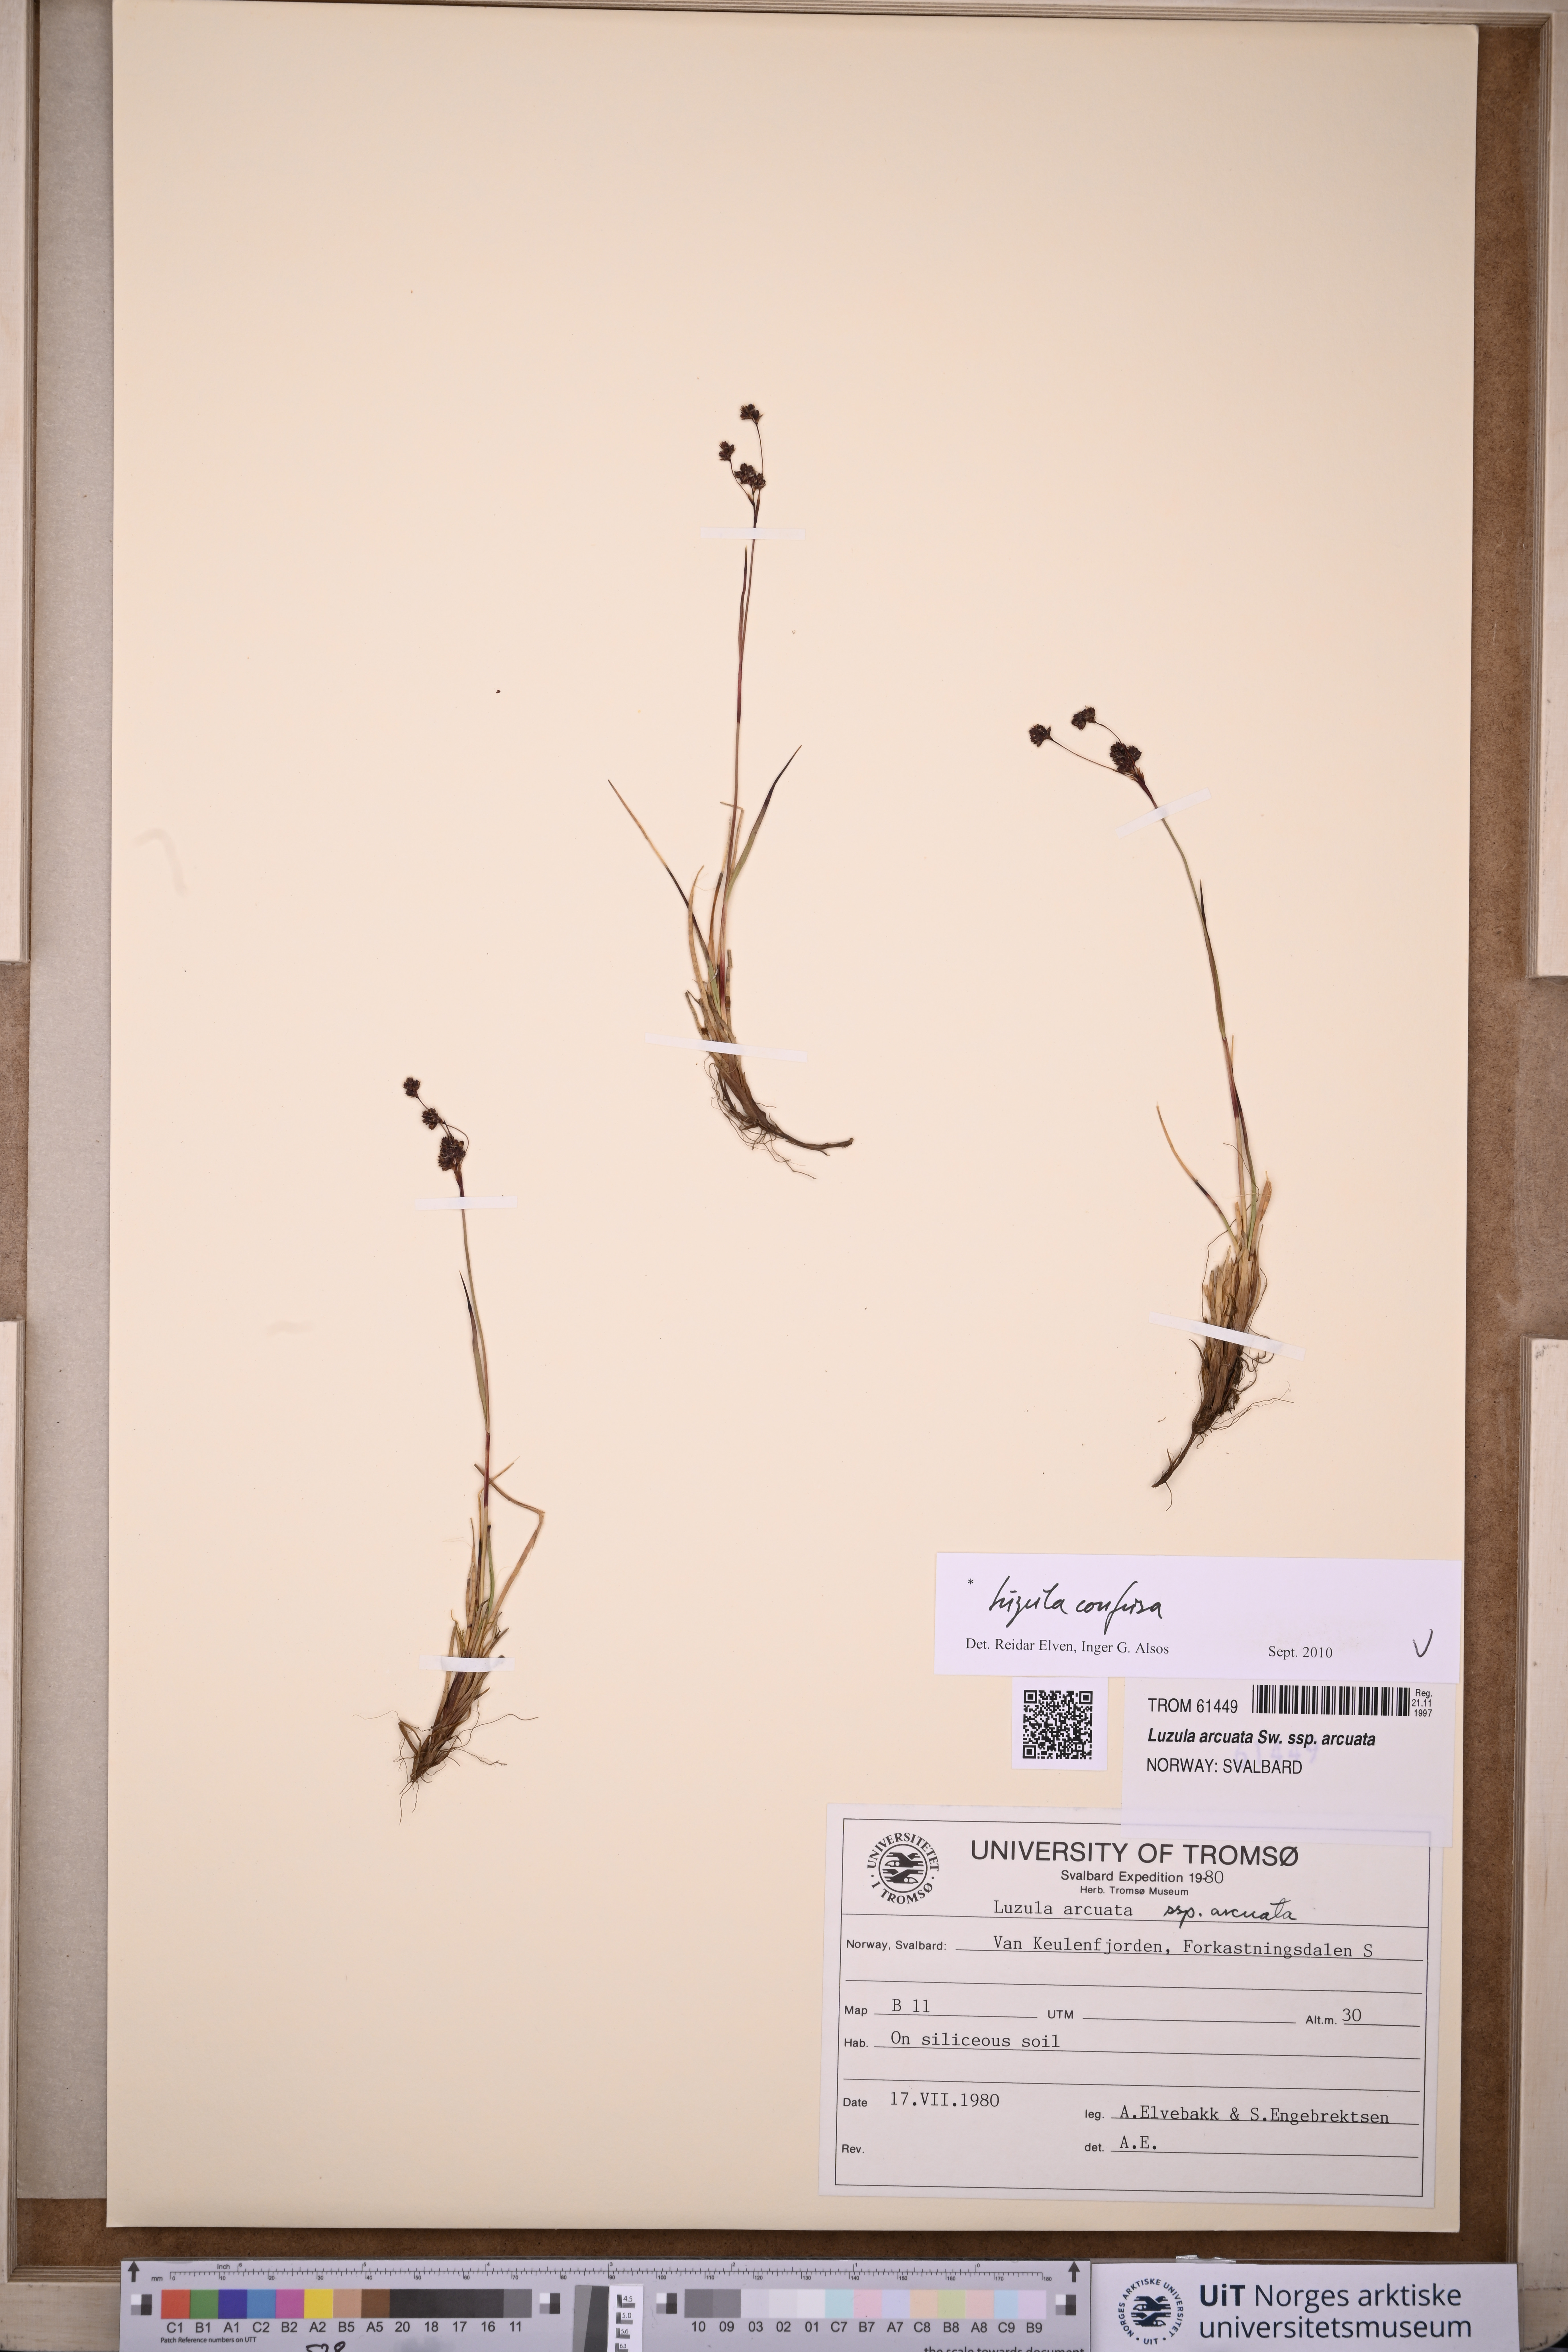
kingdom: Plantae
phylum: Tracheophyta
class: Liliopsida
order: Poales
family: Juncaceae
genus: Luzula
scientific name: Luzula confusa
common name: Northern wood rush
